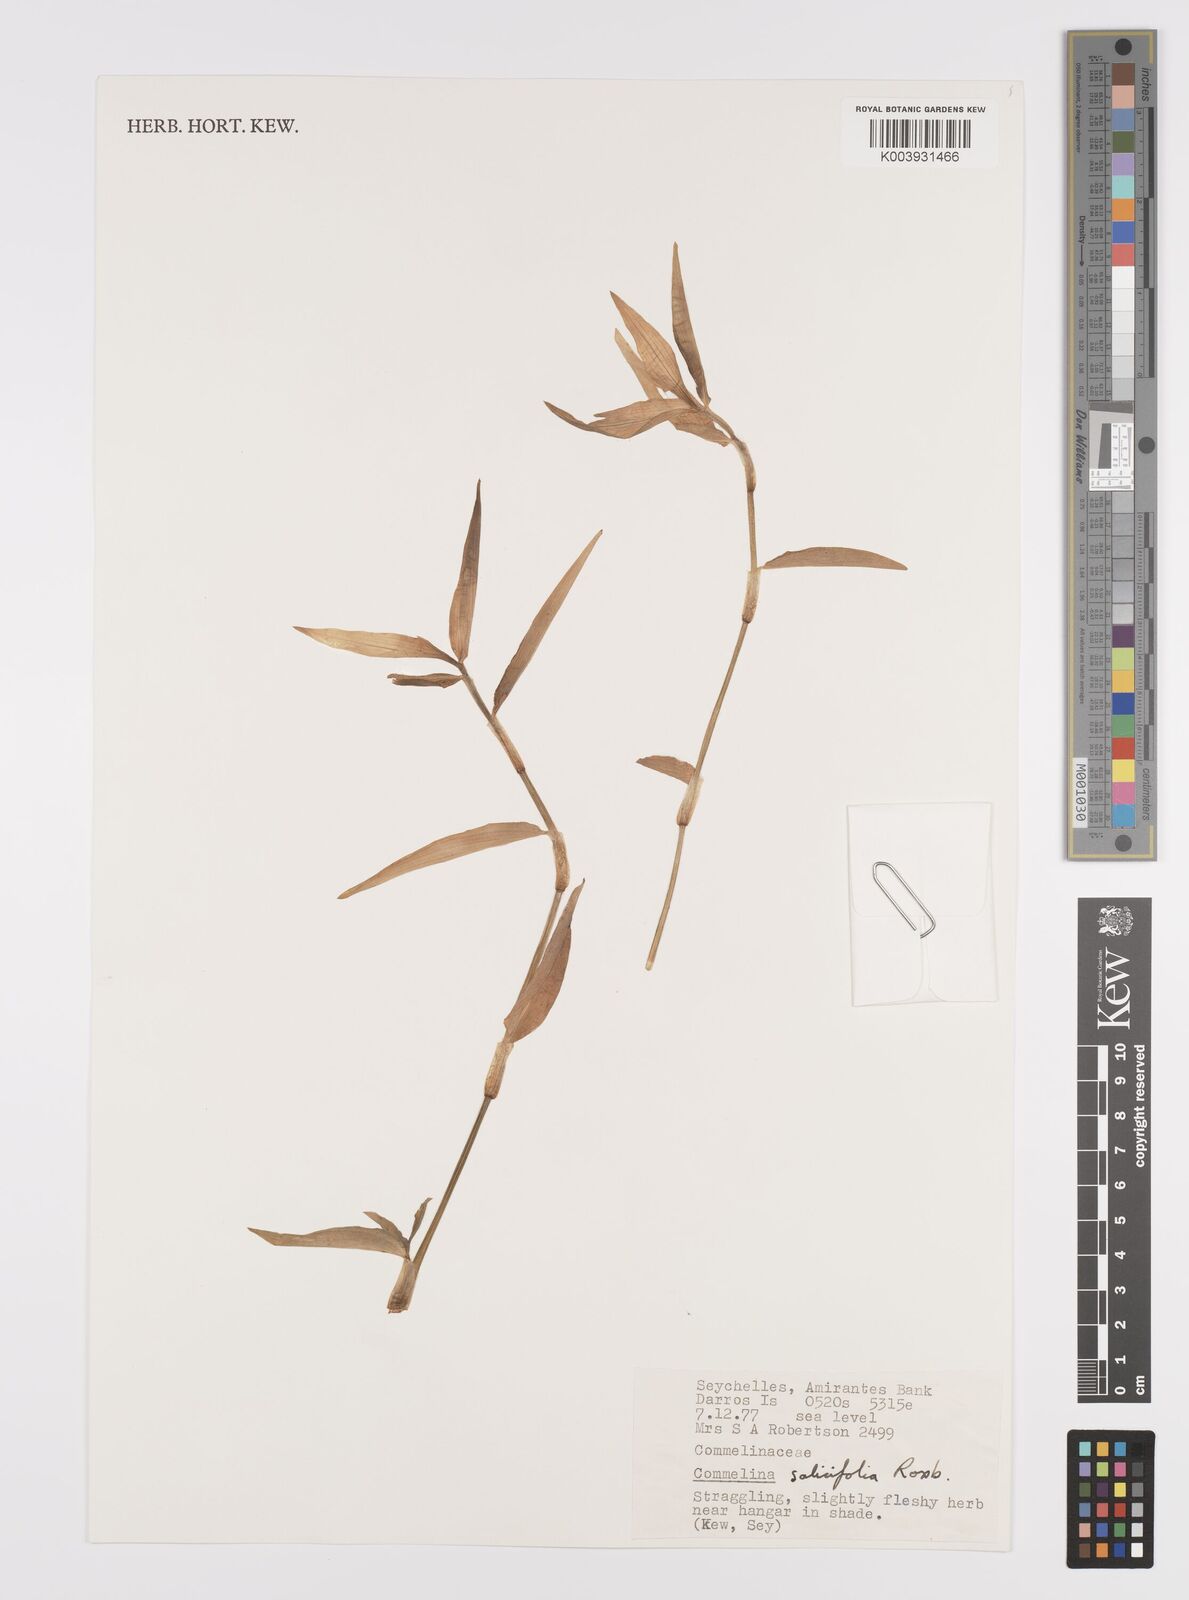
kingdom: Plantae
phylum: Tracheophyta
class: Liliopsida
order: Commelinales
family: Commelinaceae
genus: Commelina
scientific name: Commelina longifolia
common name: Longleaf dayflower
